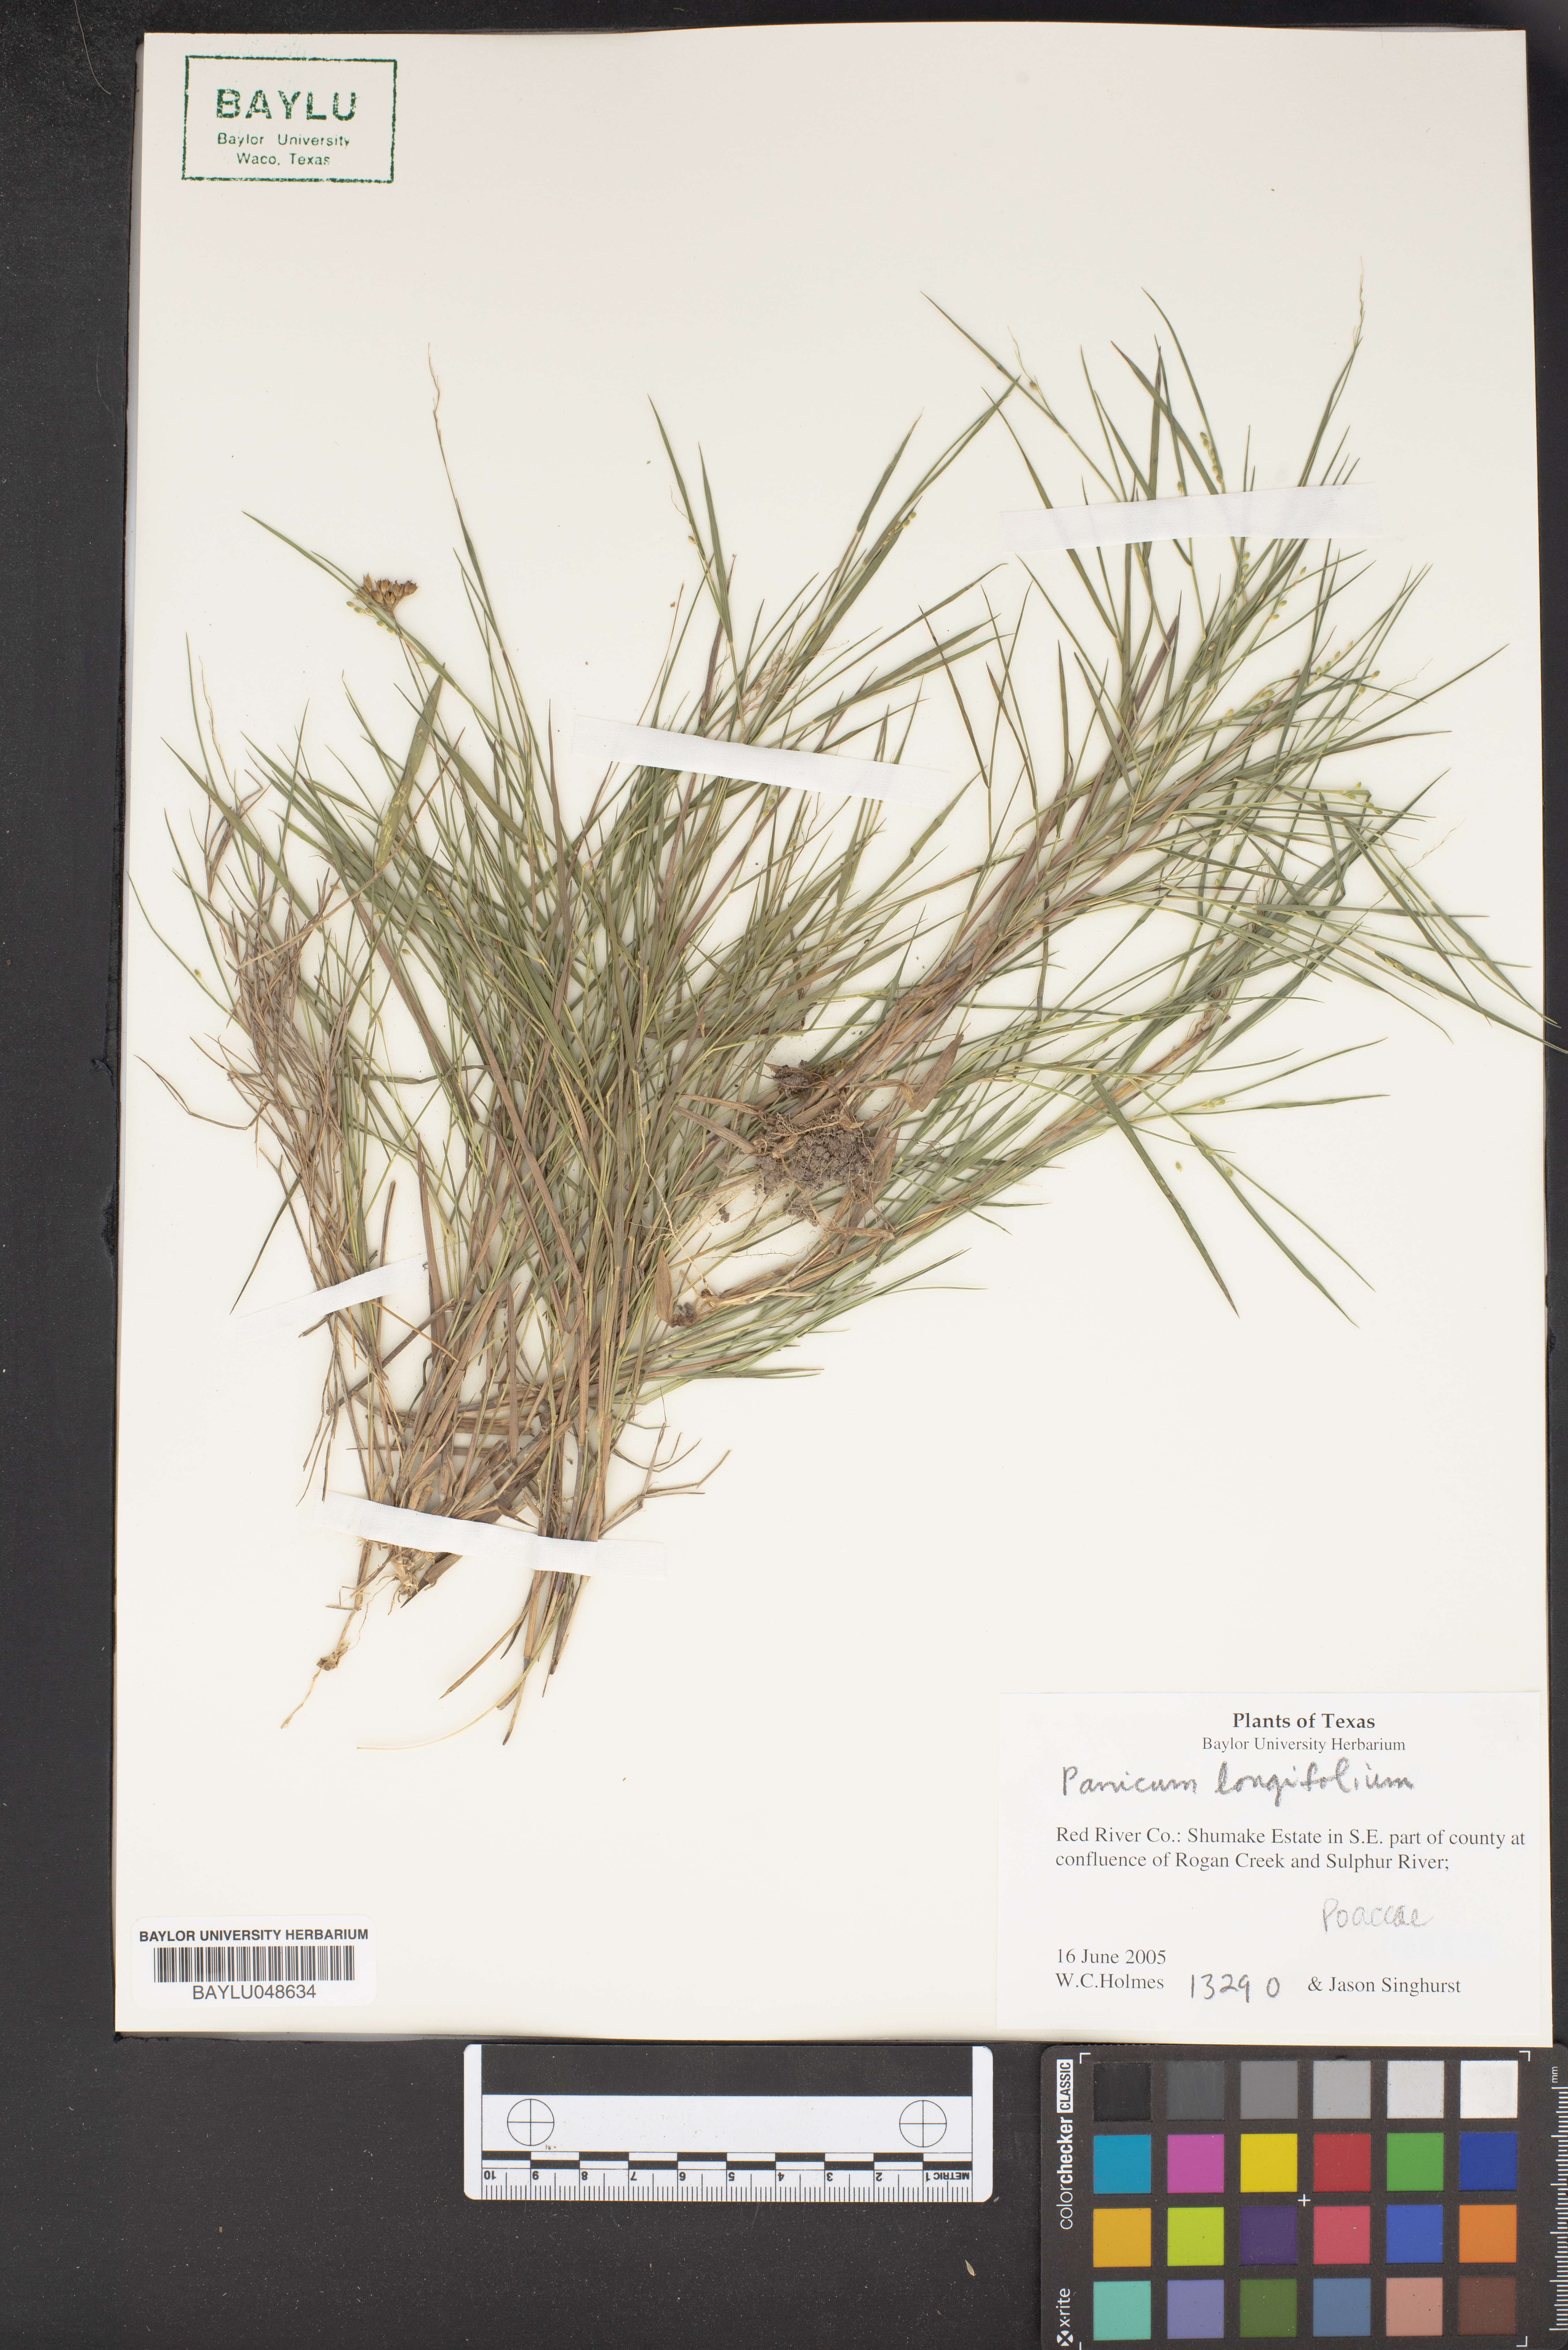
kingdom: Plantae
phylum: Tracheophyta
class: Liliopsida
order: Poales
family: Poaceae
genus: Coleataenia
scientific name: Coleataenia longifolia
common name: Long-leaved panicgrass
